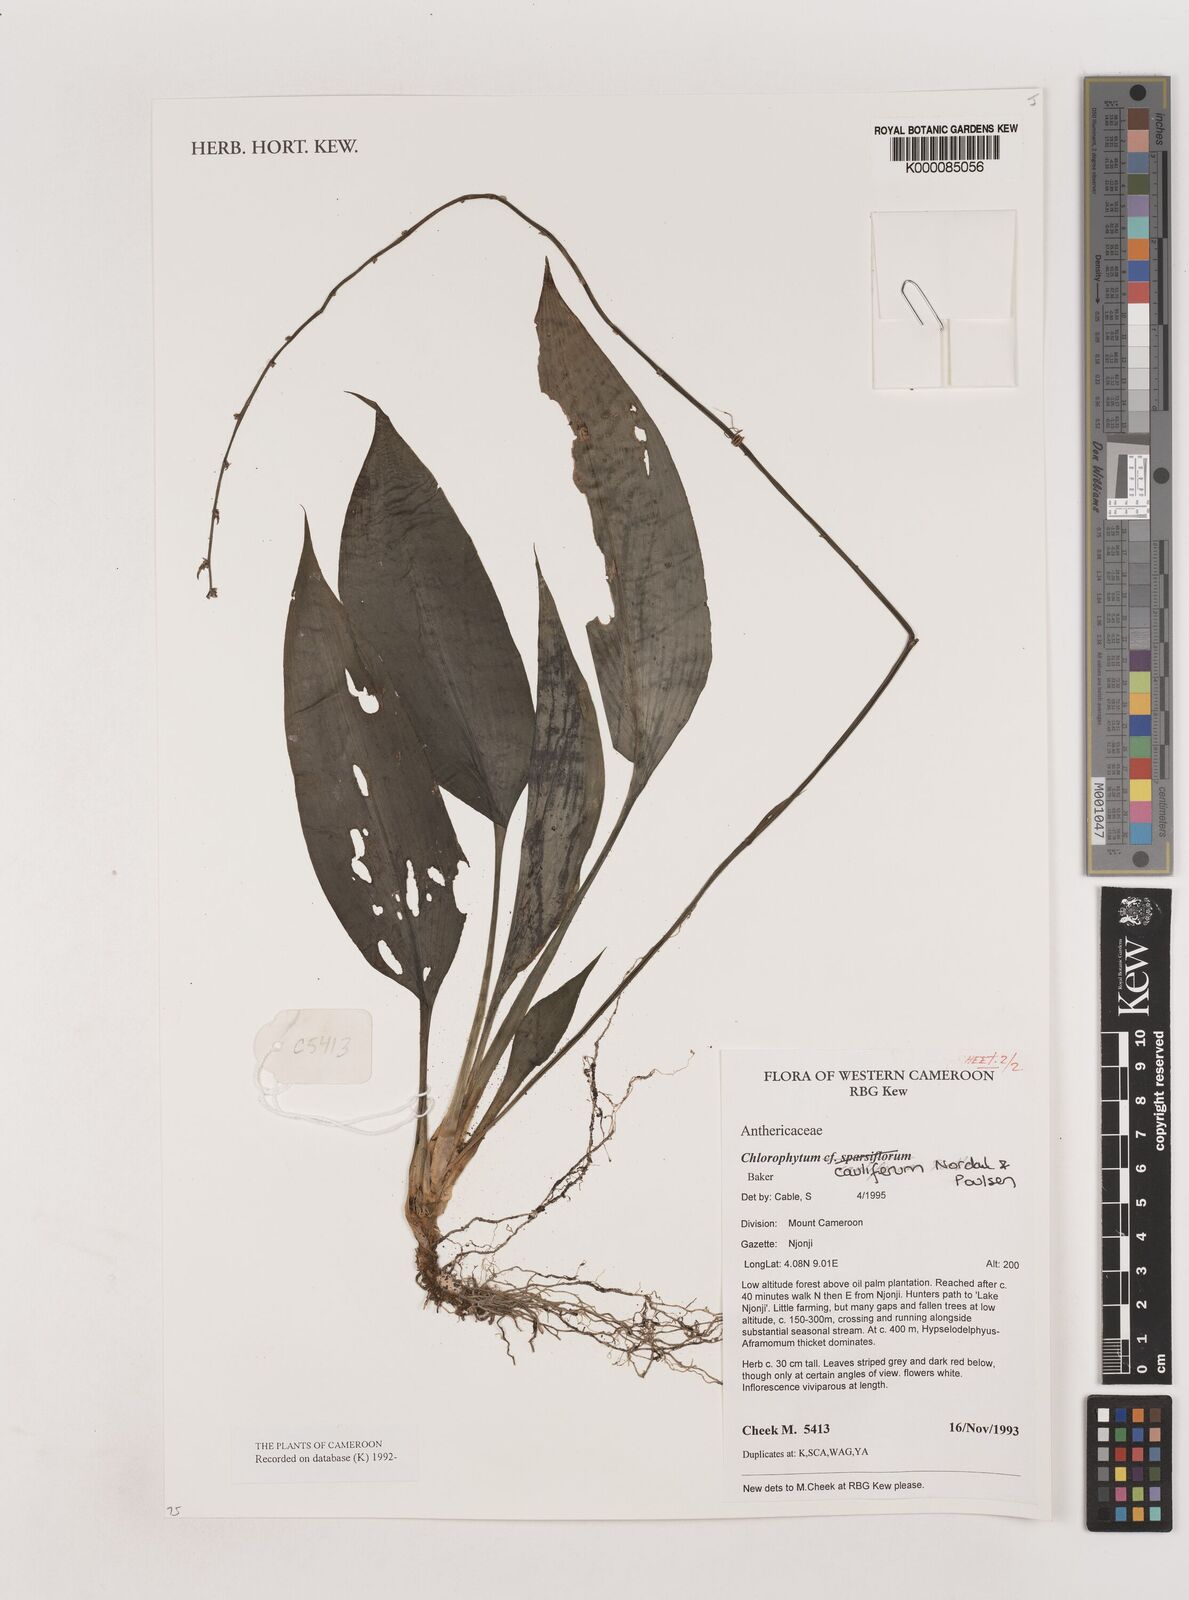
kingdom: Plantae
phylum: Tracheophyta
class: Liliopsida
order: Asparagales
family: Asparagaceae
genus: Chlorophytum
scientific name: Chlorophytum sparsiflorum
